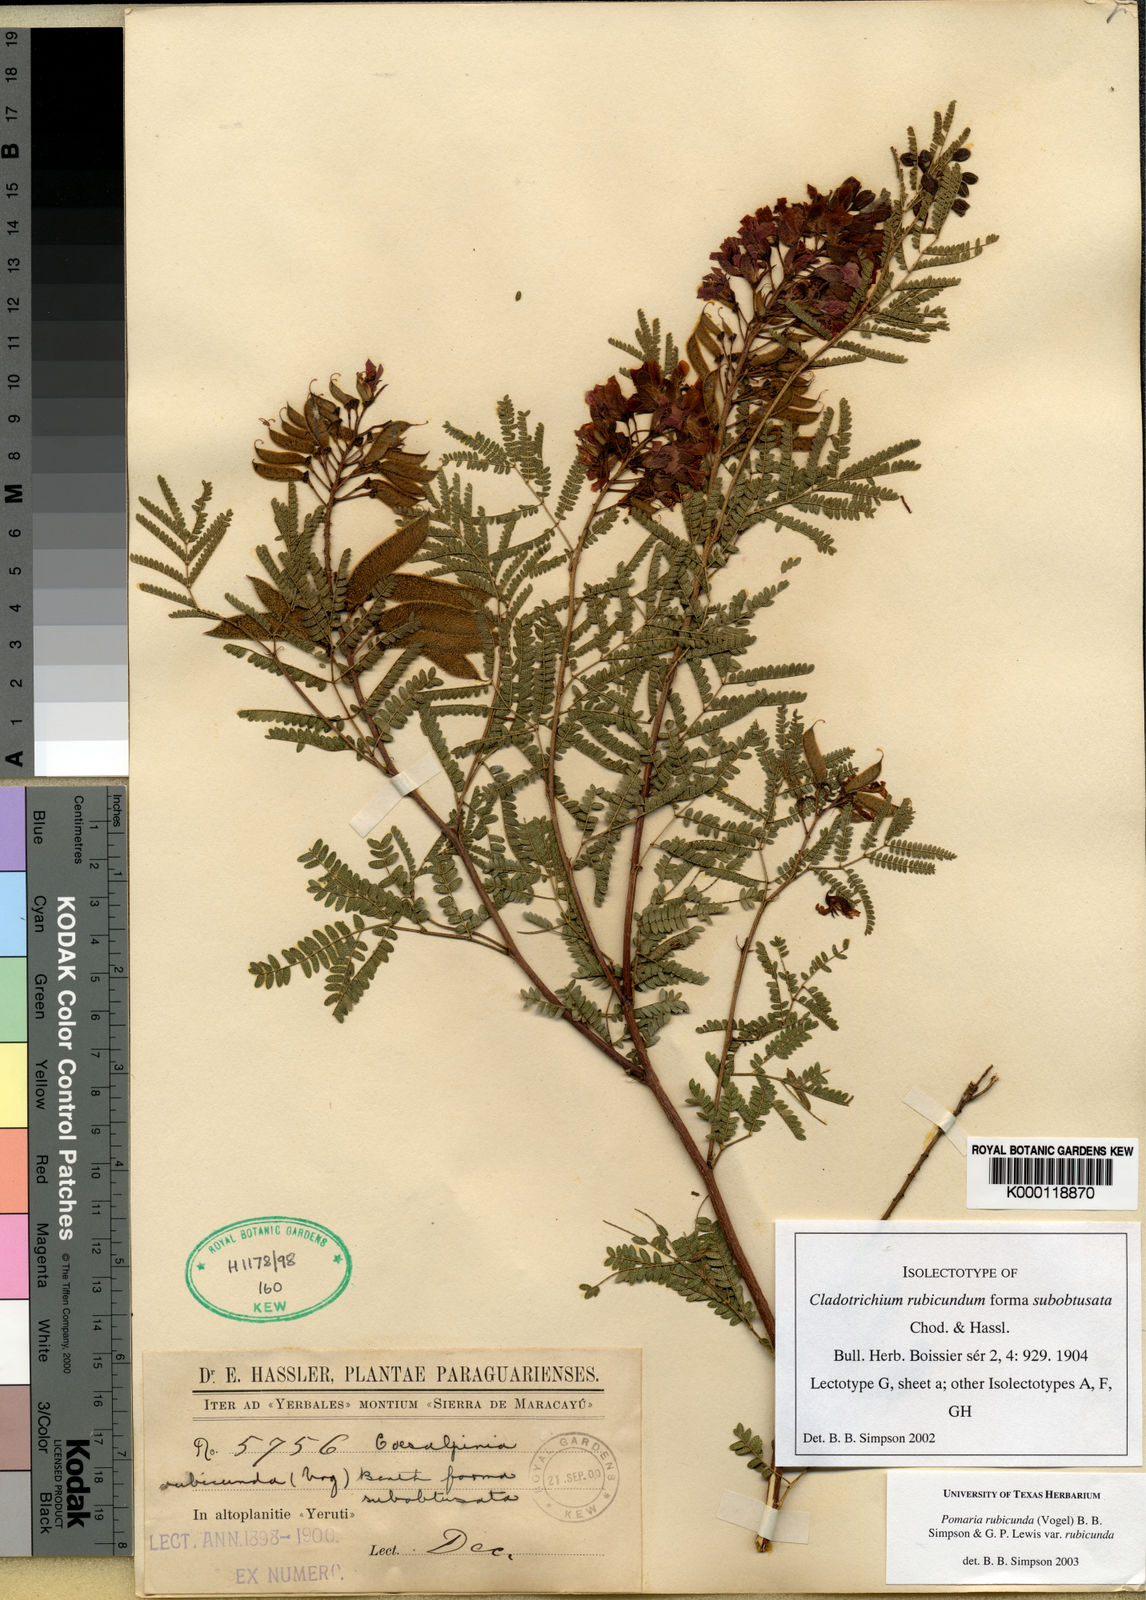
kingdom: Plantae
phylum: Tracheophyta
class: Magnoliopsida
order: Fabales
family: Fabaceae
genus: Pomaria
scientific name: Pomaria rubicunda
